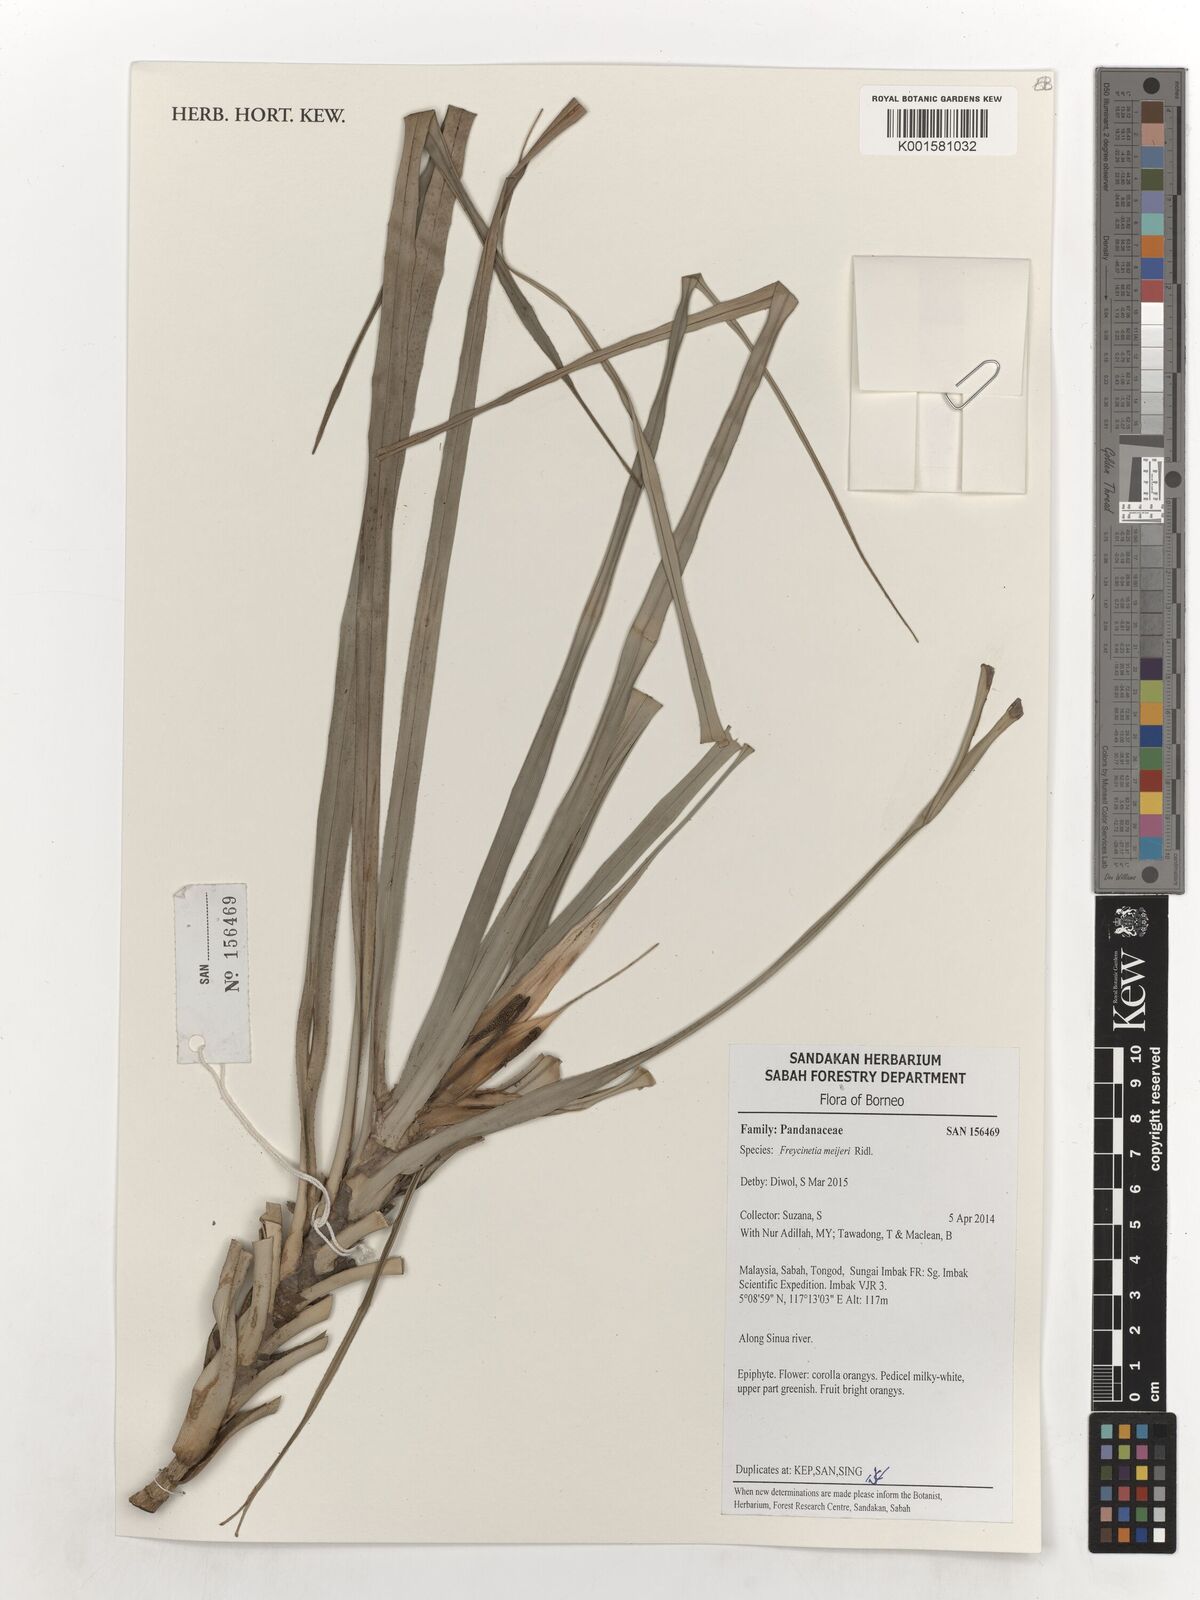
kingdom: Plantae
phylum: Tracheophyta
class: Liliopsida
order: Pandanales
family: Pandanaceae
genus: Freycinetia
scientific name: Freycinetia
